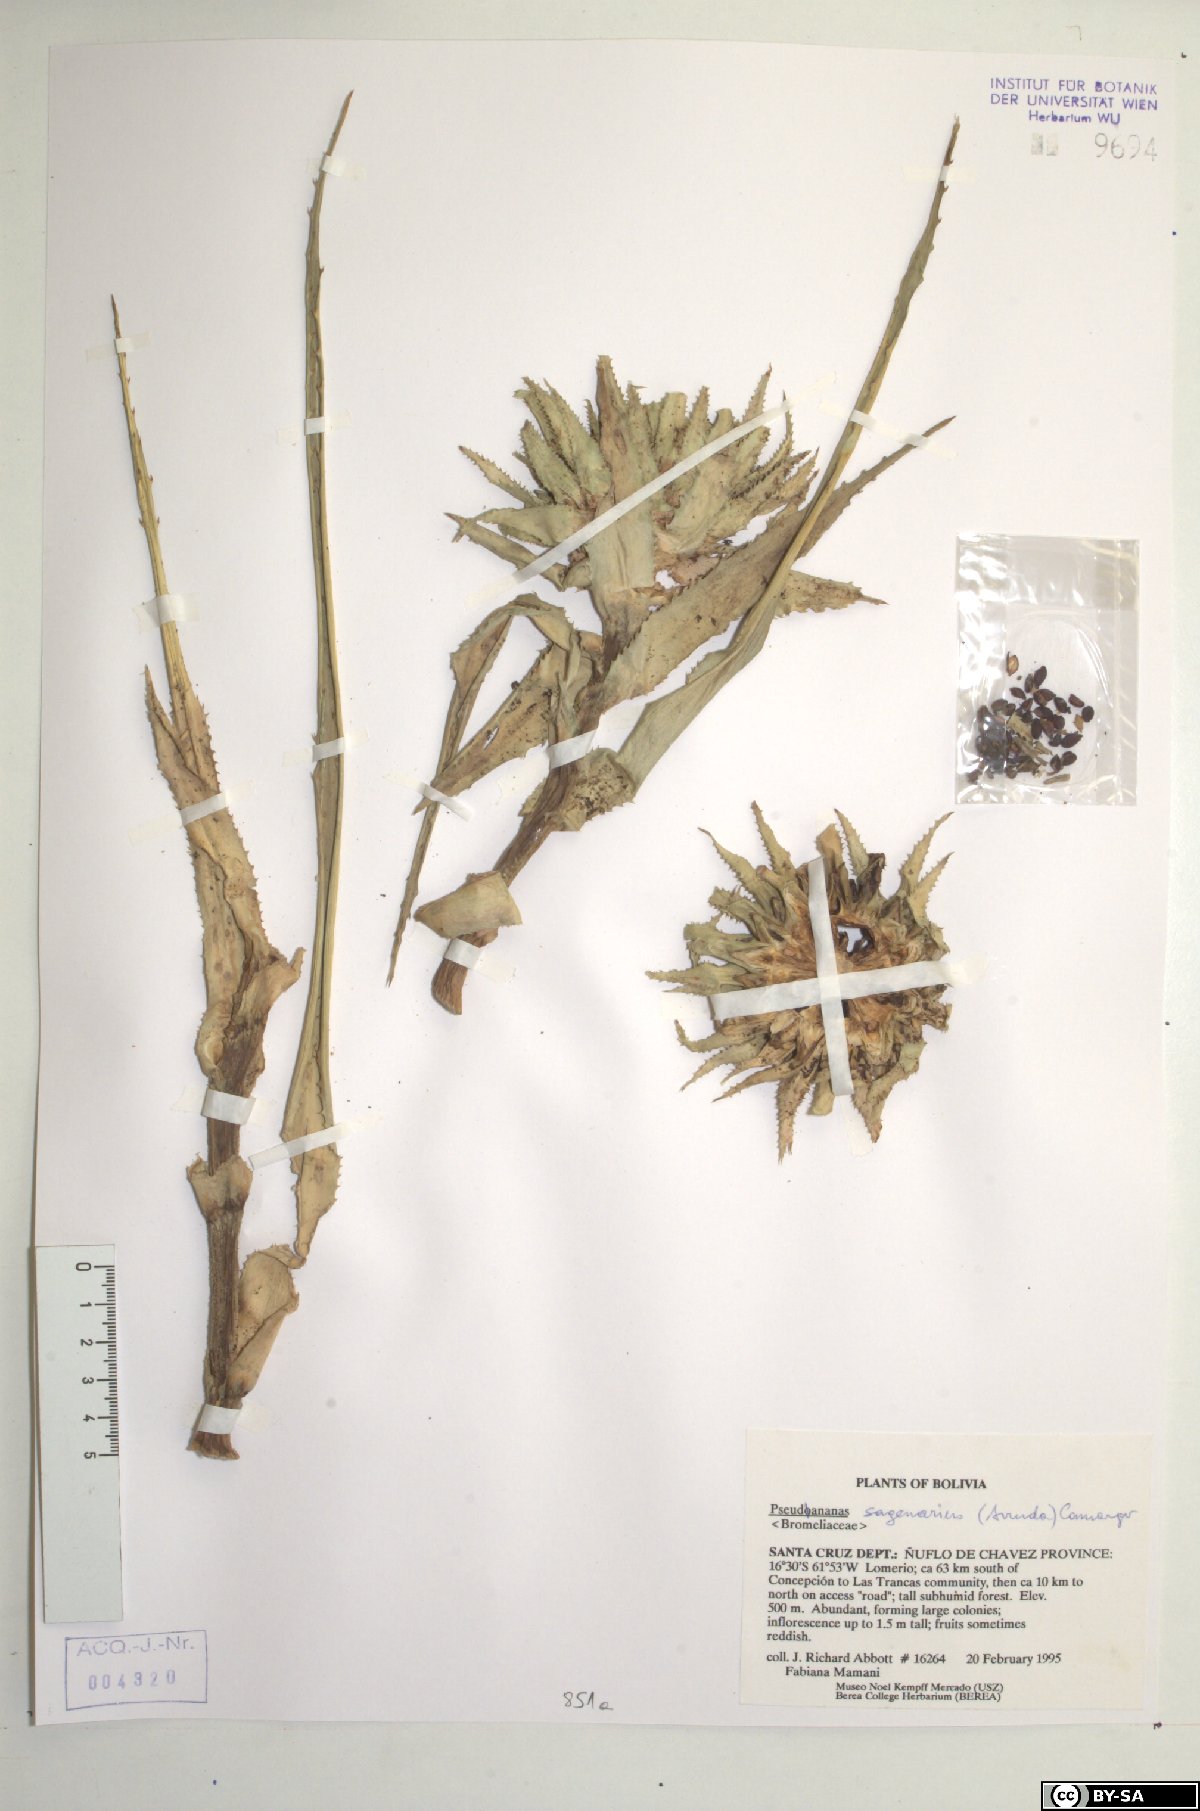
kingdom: Plantae
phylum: Tracheophyta
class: Liliopsida
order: Poales
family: Bromeliaceae
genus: Ananas
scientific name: Ananas comosus
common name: Pineapple
